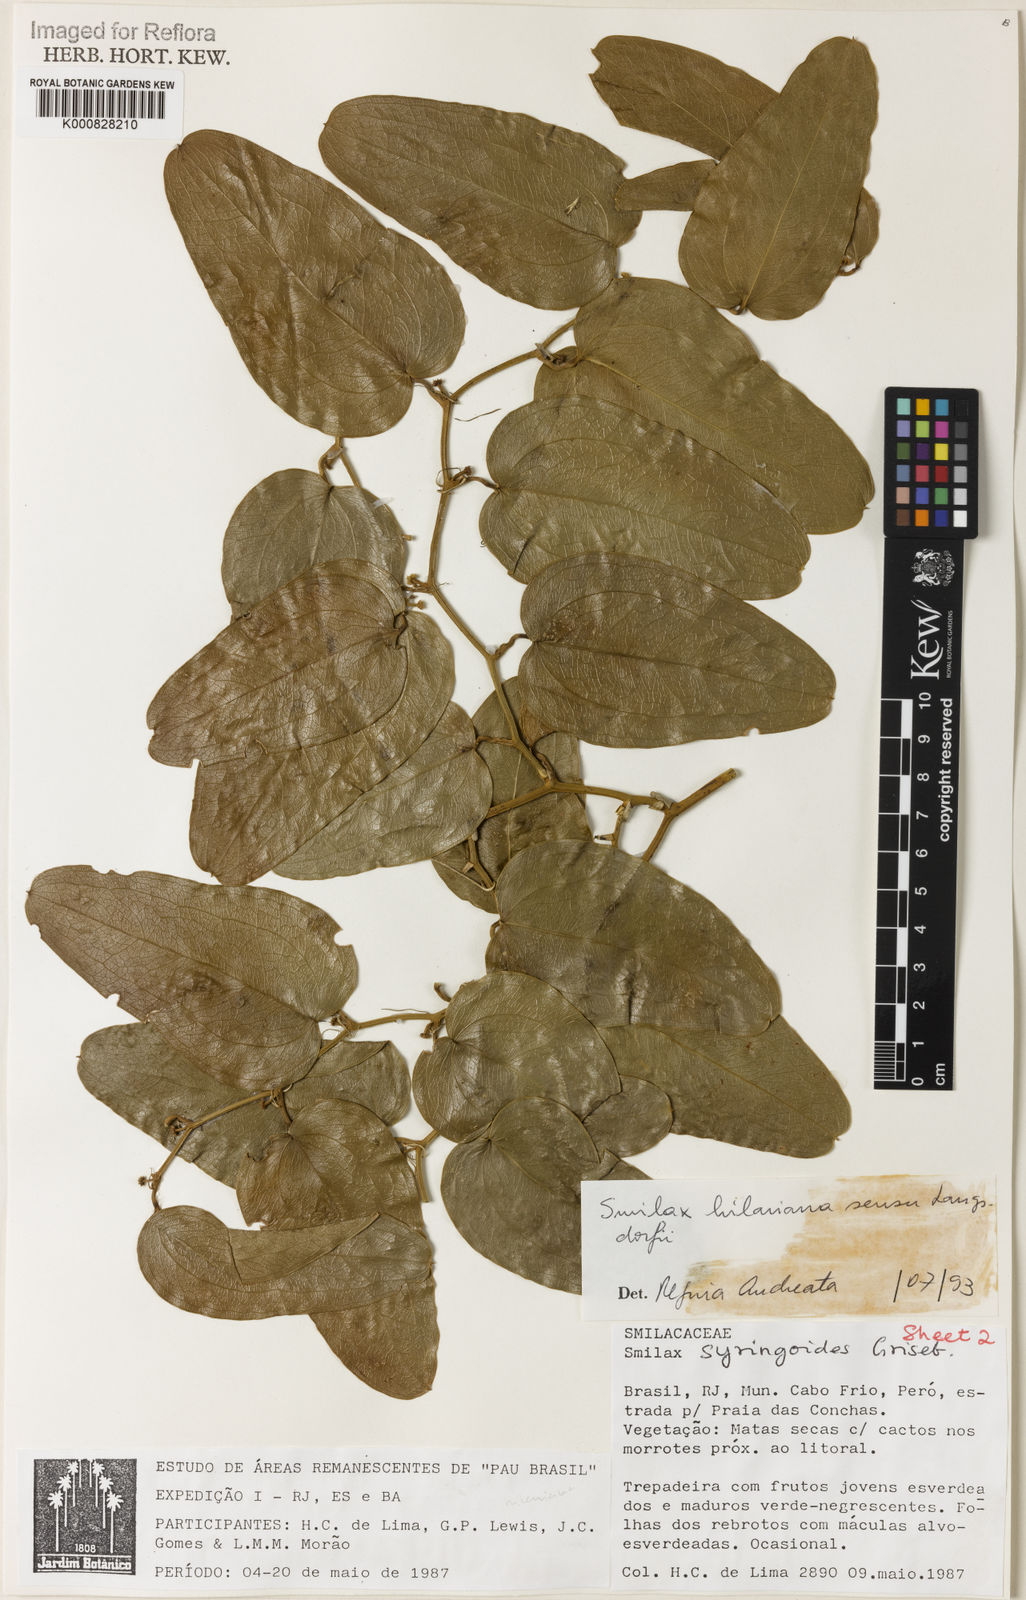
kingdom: Plantae
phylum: Tracheophyta
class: Liliopsida
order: Liliales
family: Smilacaceae
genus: Smilax
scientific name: Smilax hilariana
